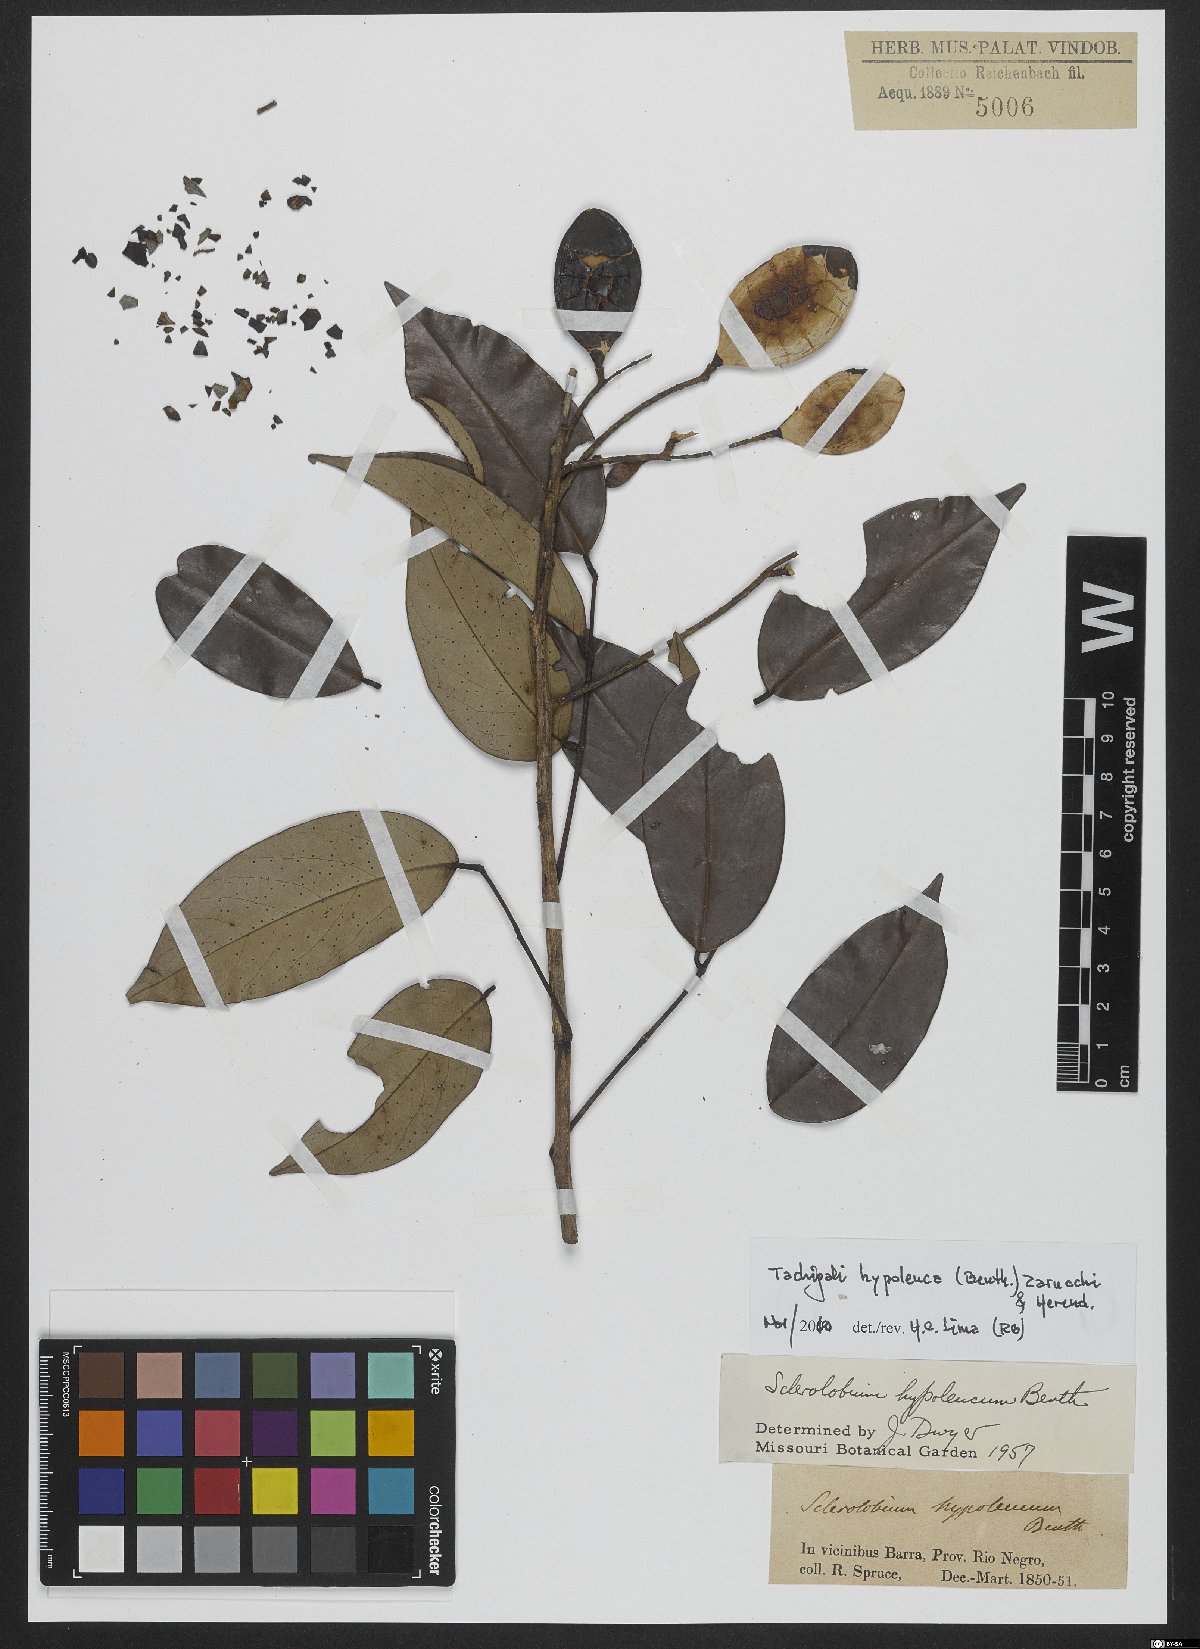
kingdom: Plantae
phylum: Tracheophyta
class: Magnoliopsida
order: Fabales
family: Fabaceae
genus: Tachigali
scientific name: Tachigali hypoleuca
